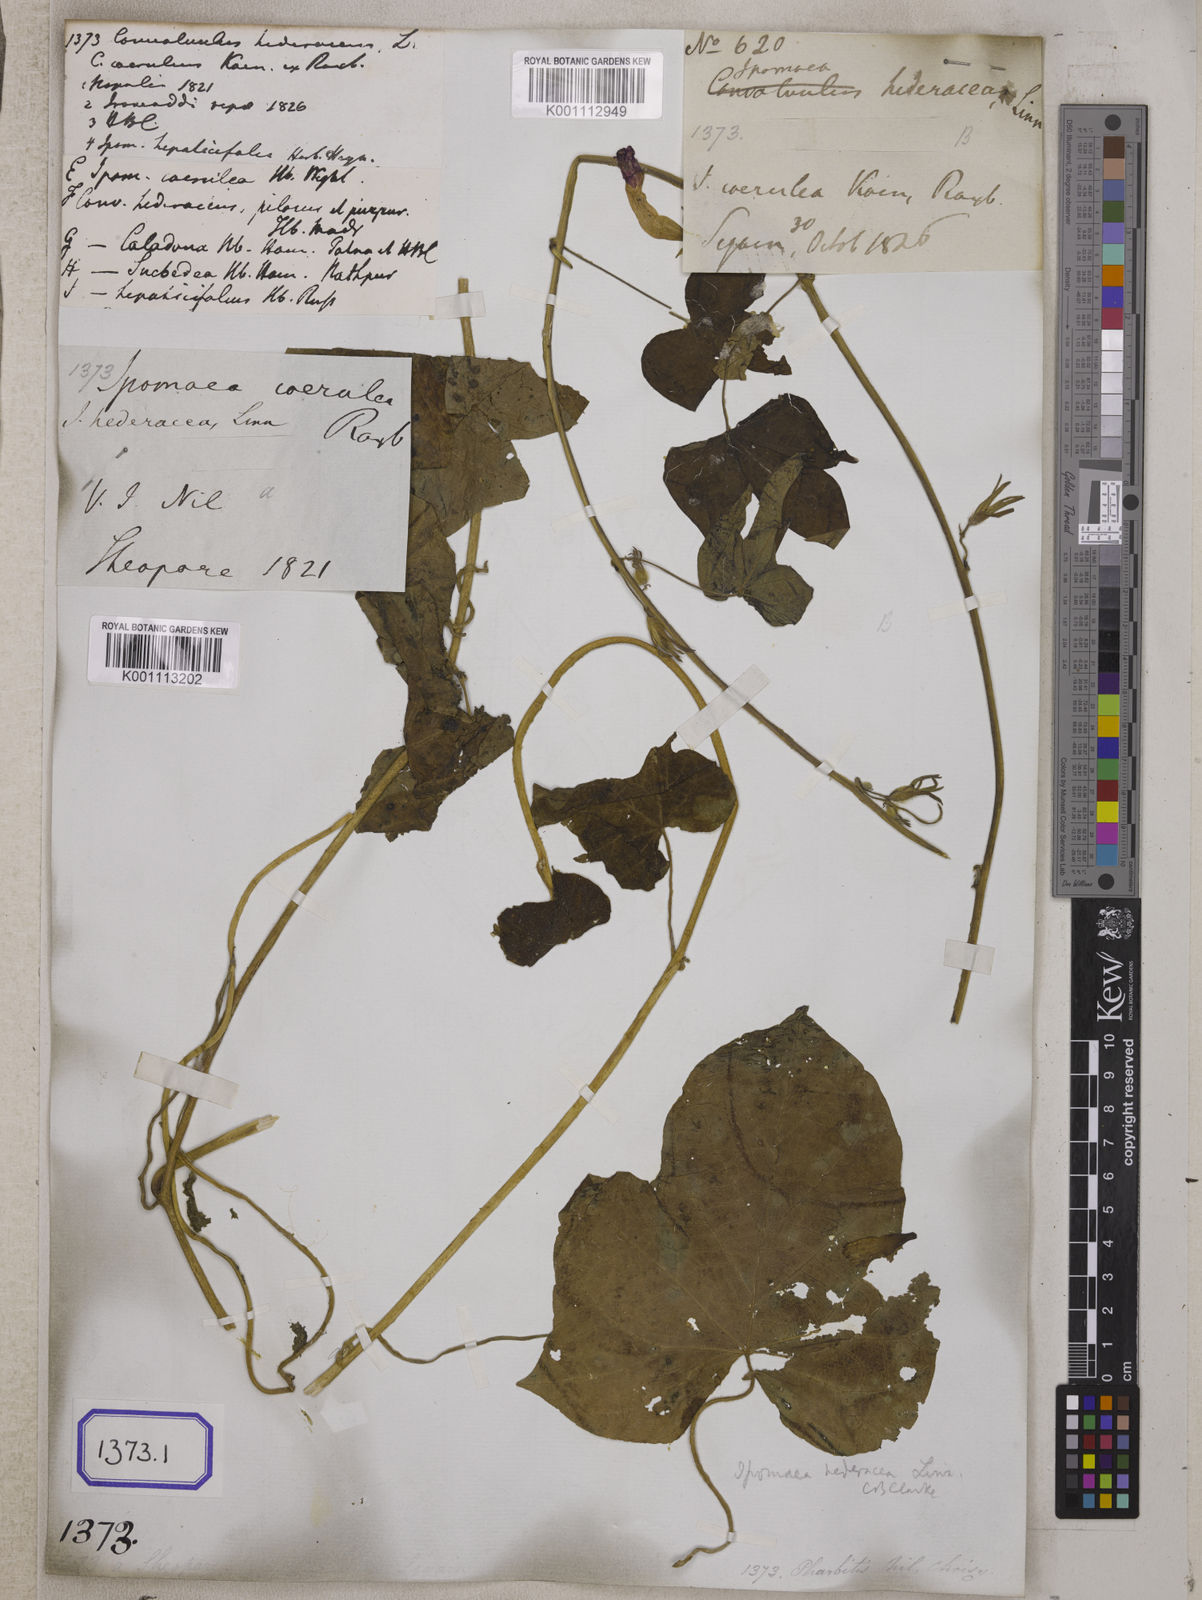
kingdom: Plantae
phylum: Tracheophyta
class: Magnoliopsida
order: Solanales
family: Convolvulaceae
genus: Ipomoea
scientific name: Ipomoea nil
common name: Japanese morning-glory
